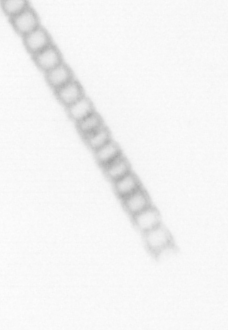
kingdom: Chromista
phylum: Ochrophyta
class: Bacillariophyceae
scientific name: Bacillariophyceae
